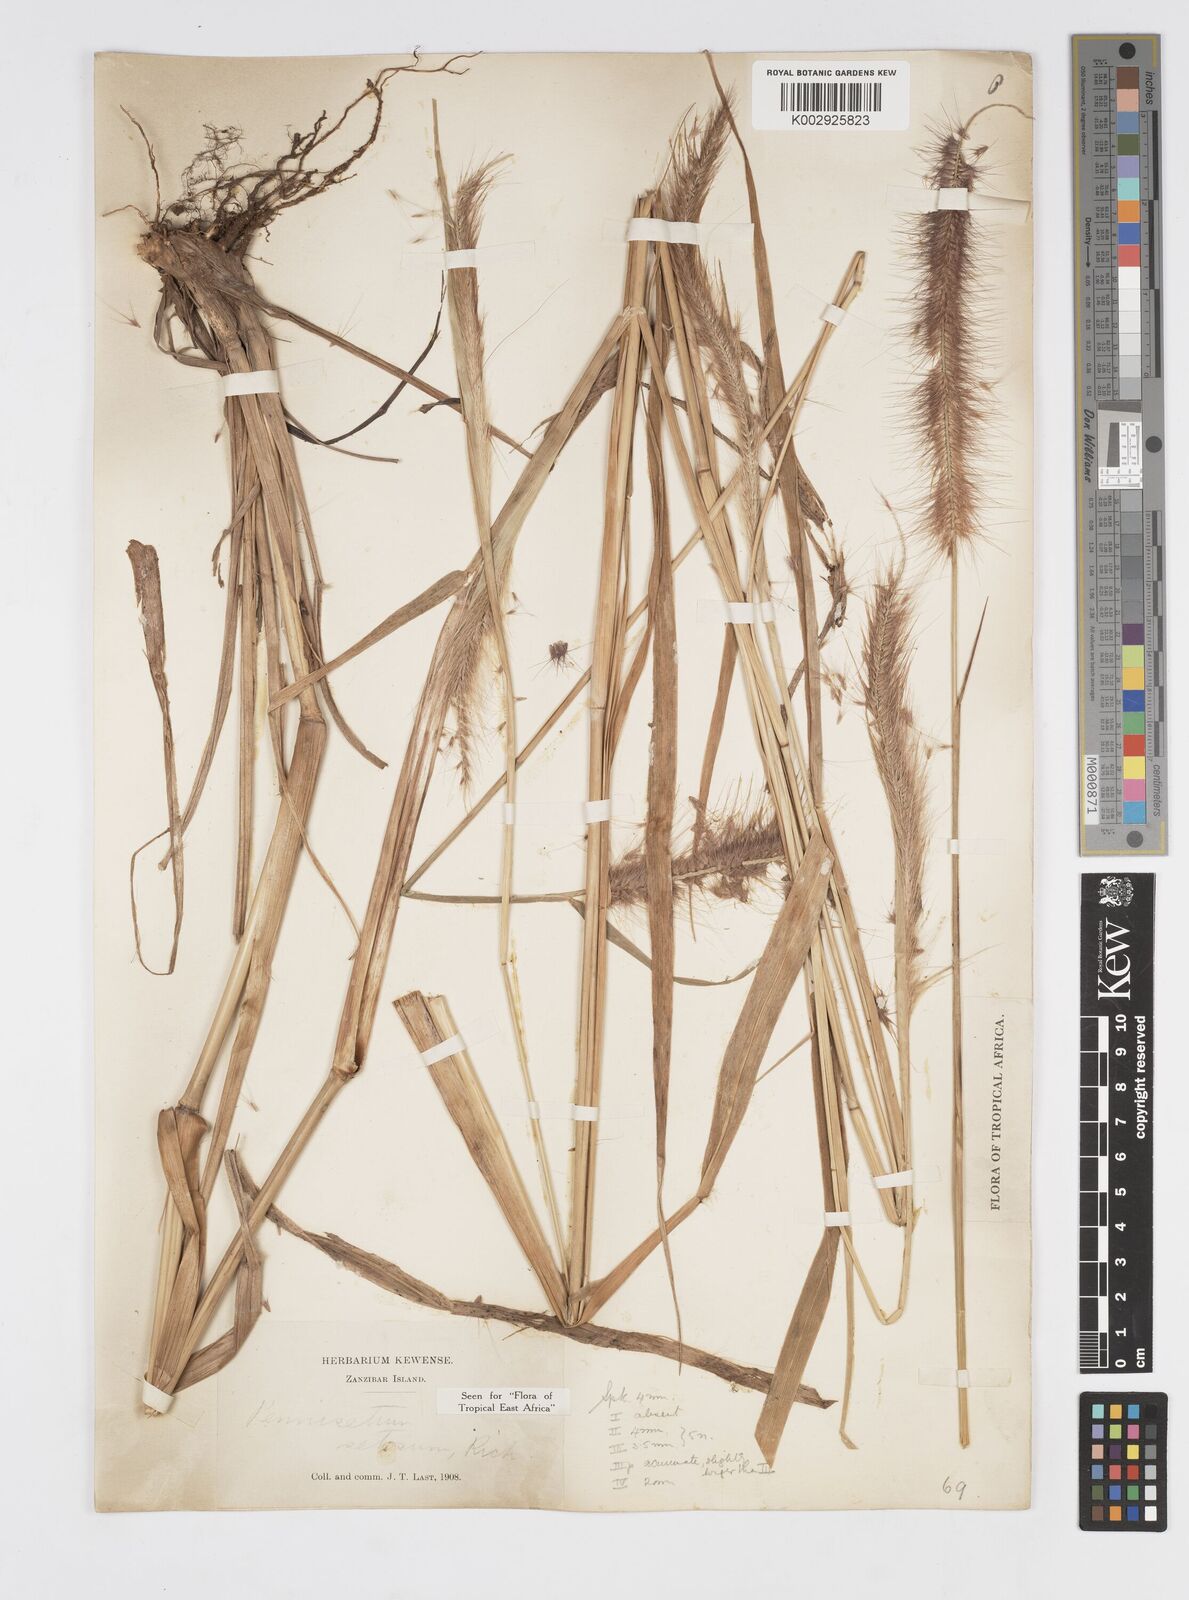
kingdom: Plantae
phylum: Tracheophyta
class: Liliopsida
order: Poales
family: Poaceae
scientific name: Poaceae
